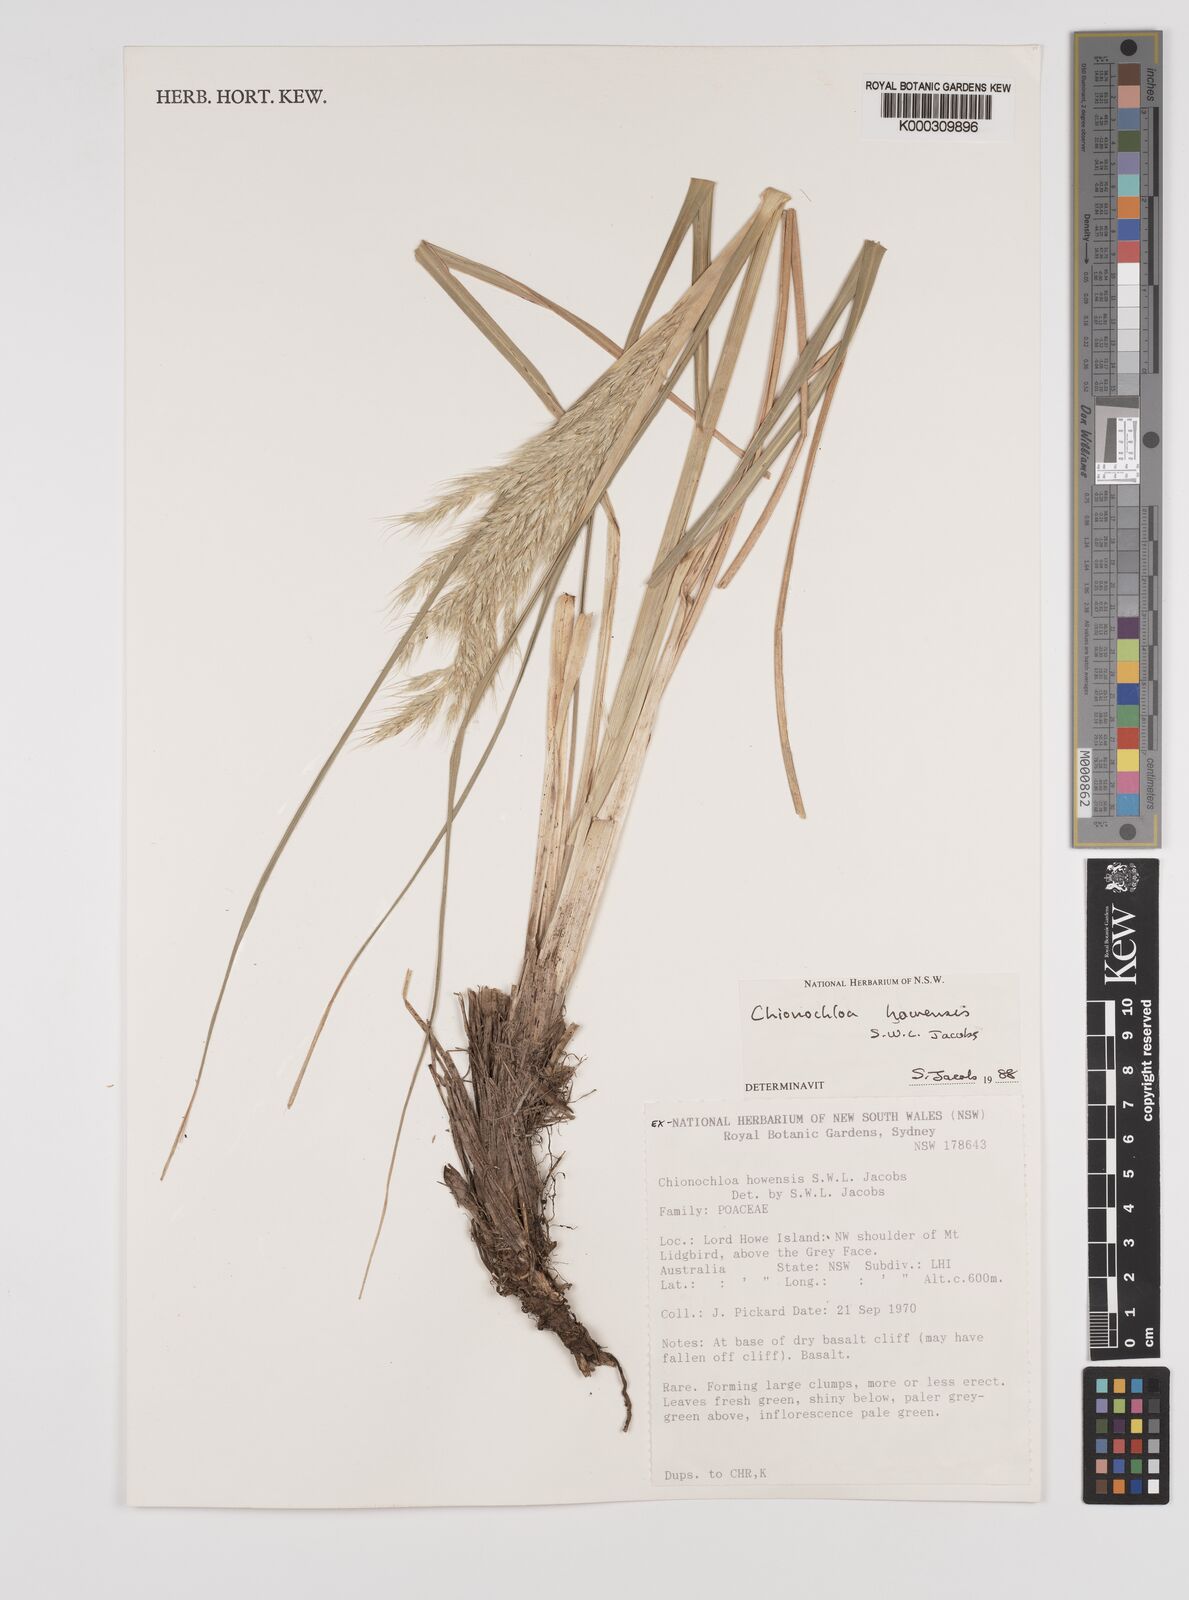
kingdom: Plantae
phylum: Tracheophyta
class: Liliopsida
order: Poales
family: Poaceae
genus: Chionochloa
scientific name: Chionochloa howensis
